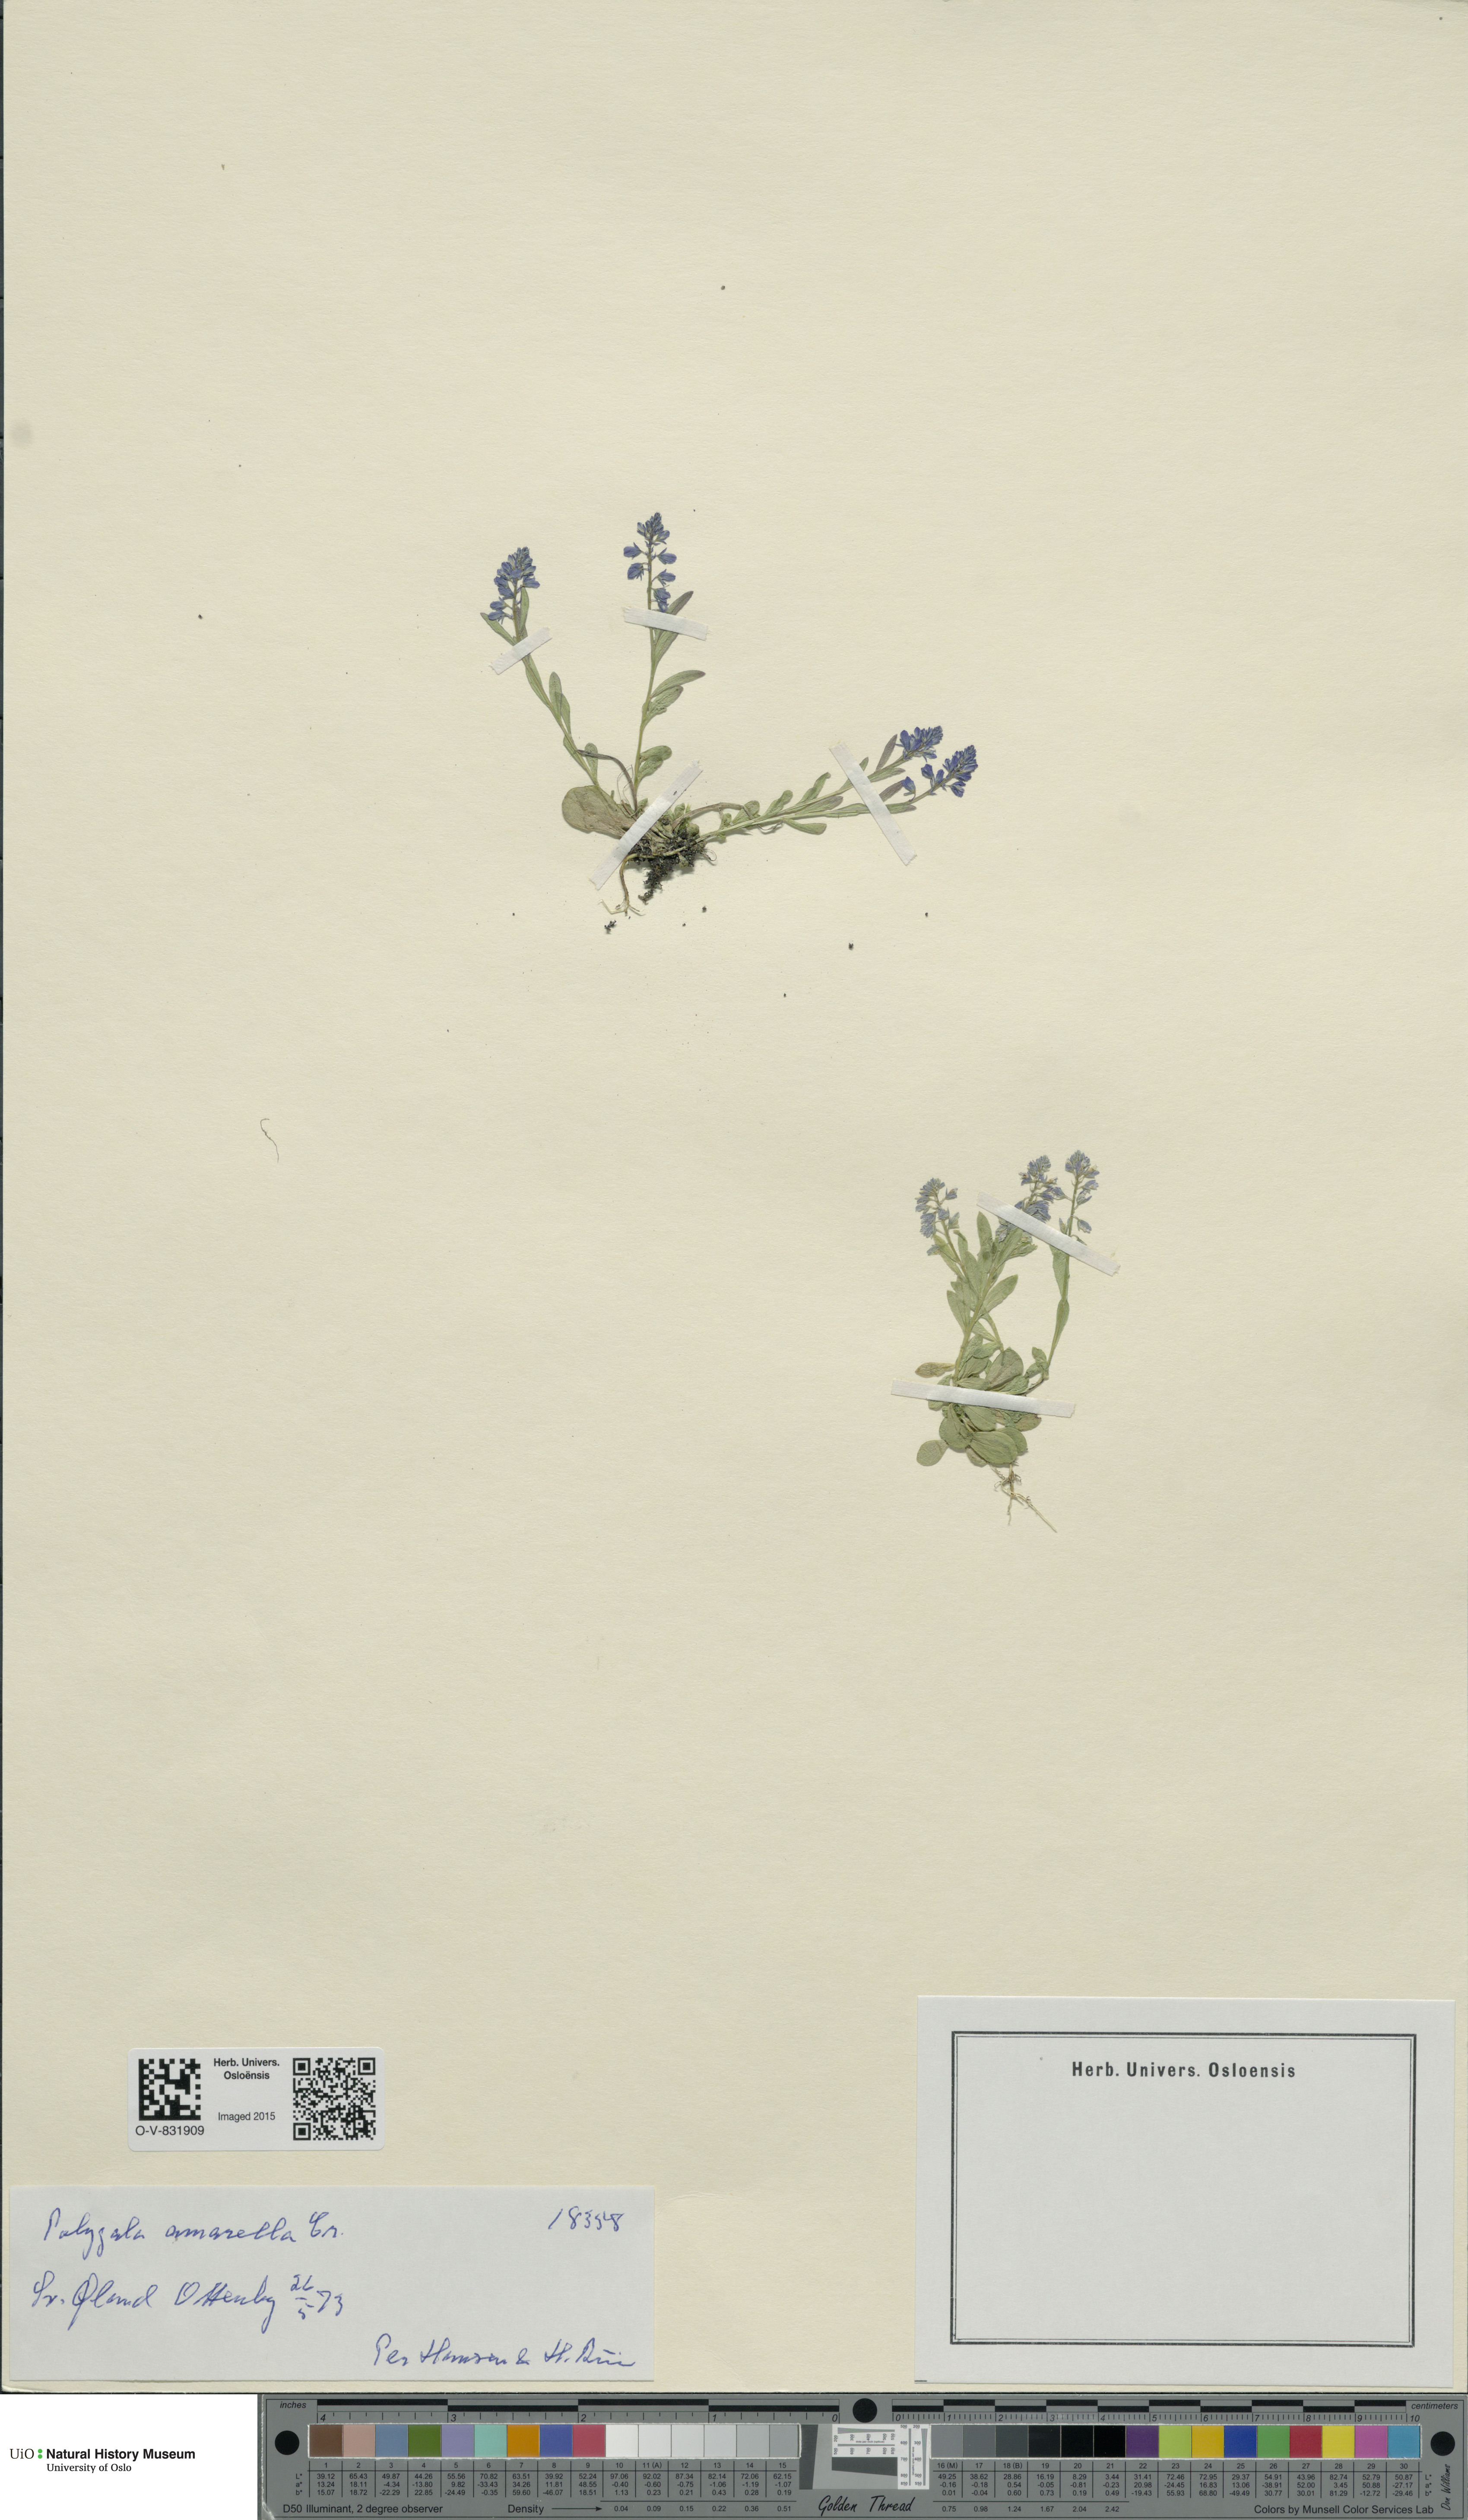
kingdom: Plantae
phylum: Tracheophyta
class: Magnoliopsida
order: Fabales
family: Polygalaceae
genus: Polygala
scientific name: Polygala amarella
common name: Dwarf milkwort
